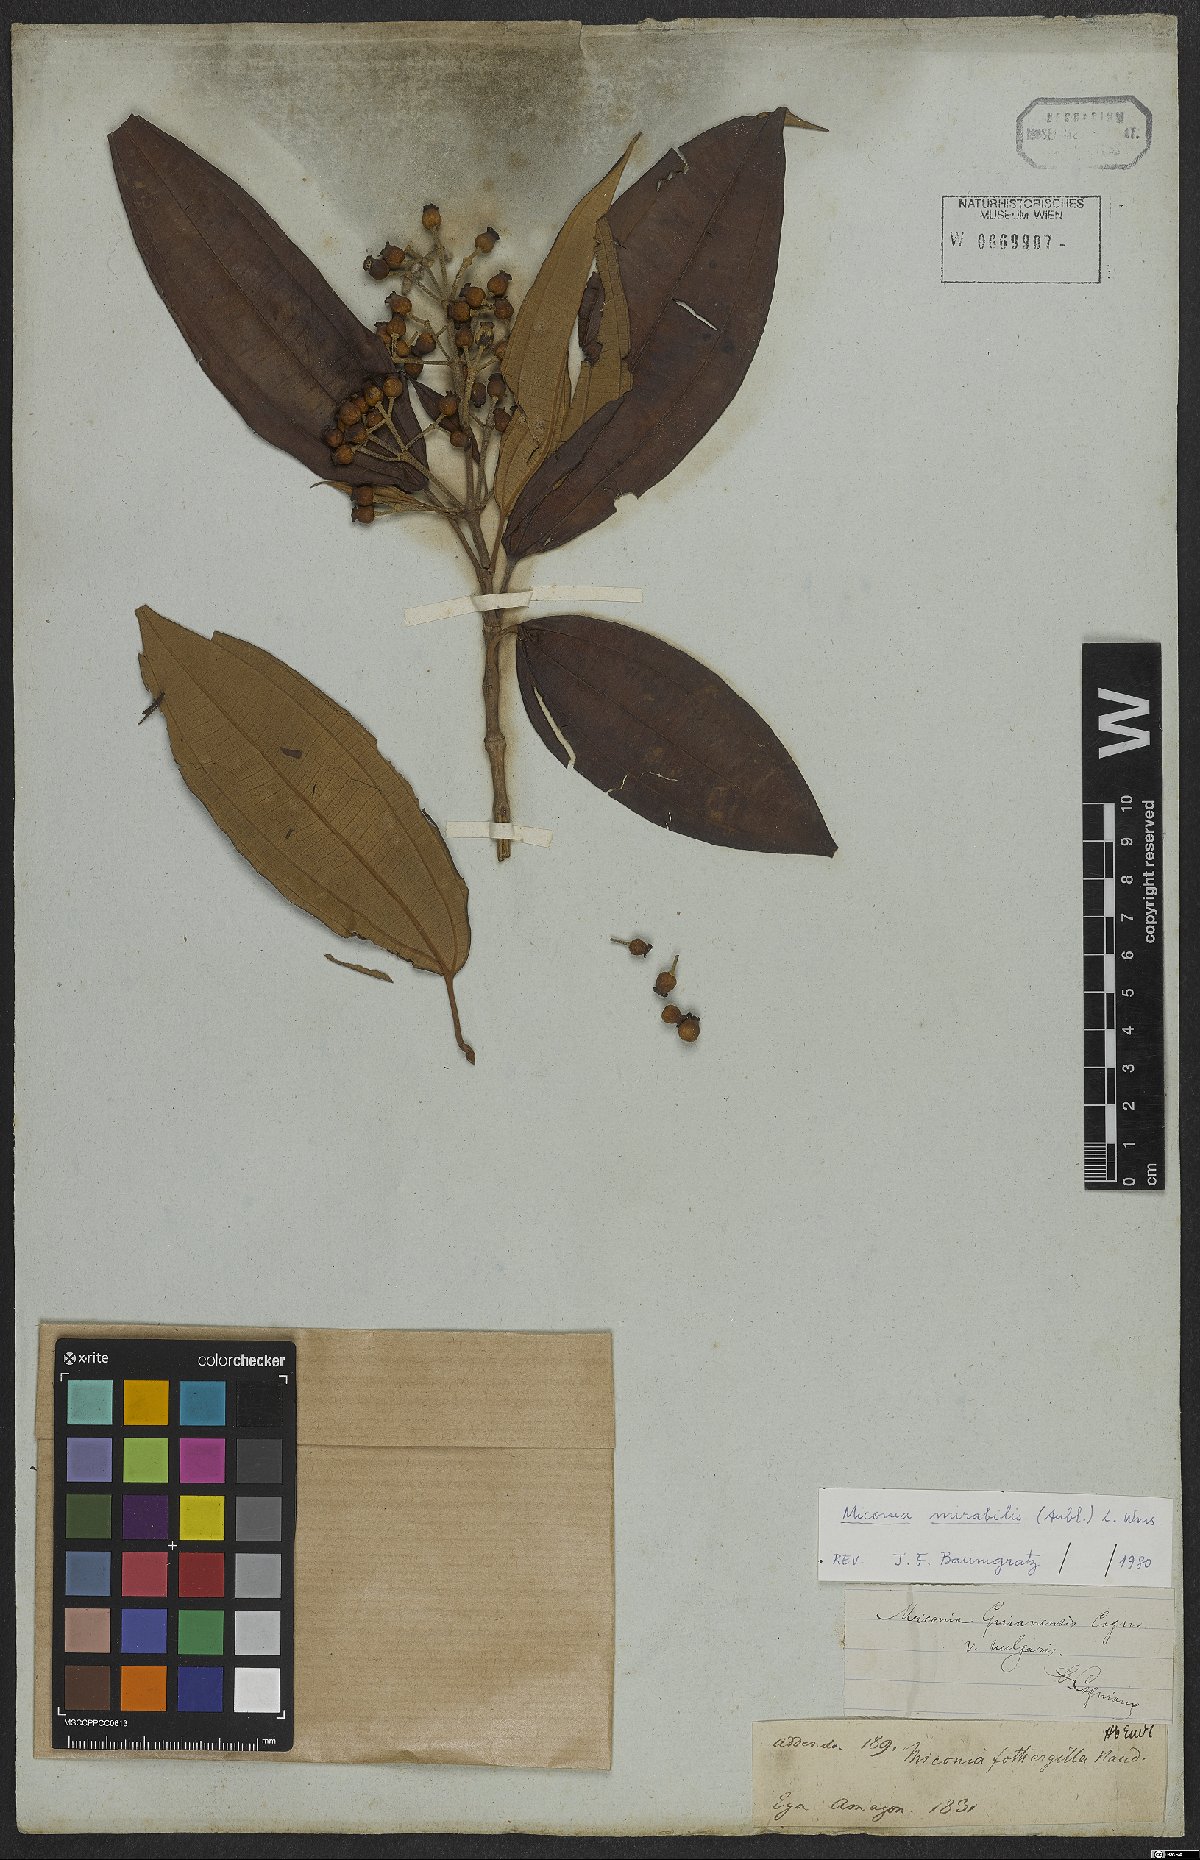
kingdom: Plantae
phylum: Tracheophyta
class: Magnoliopsida
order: Myrtales
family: Melastomataceae
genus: Miconia
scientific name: Miconia mirabilis
